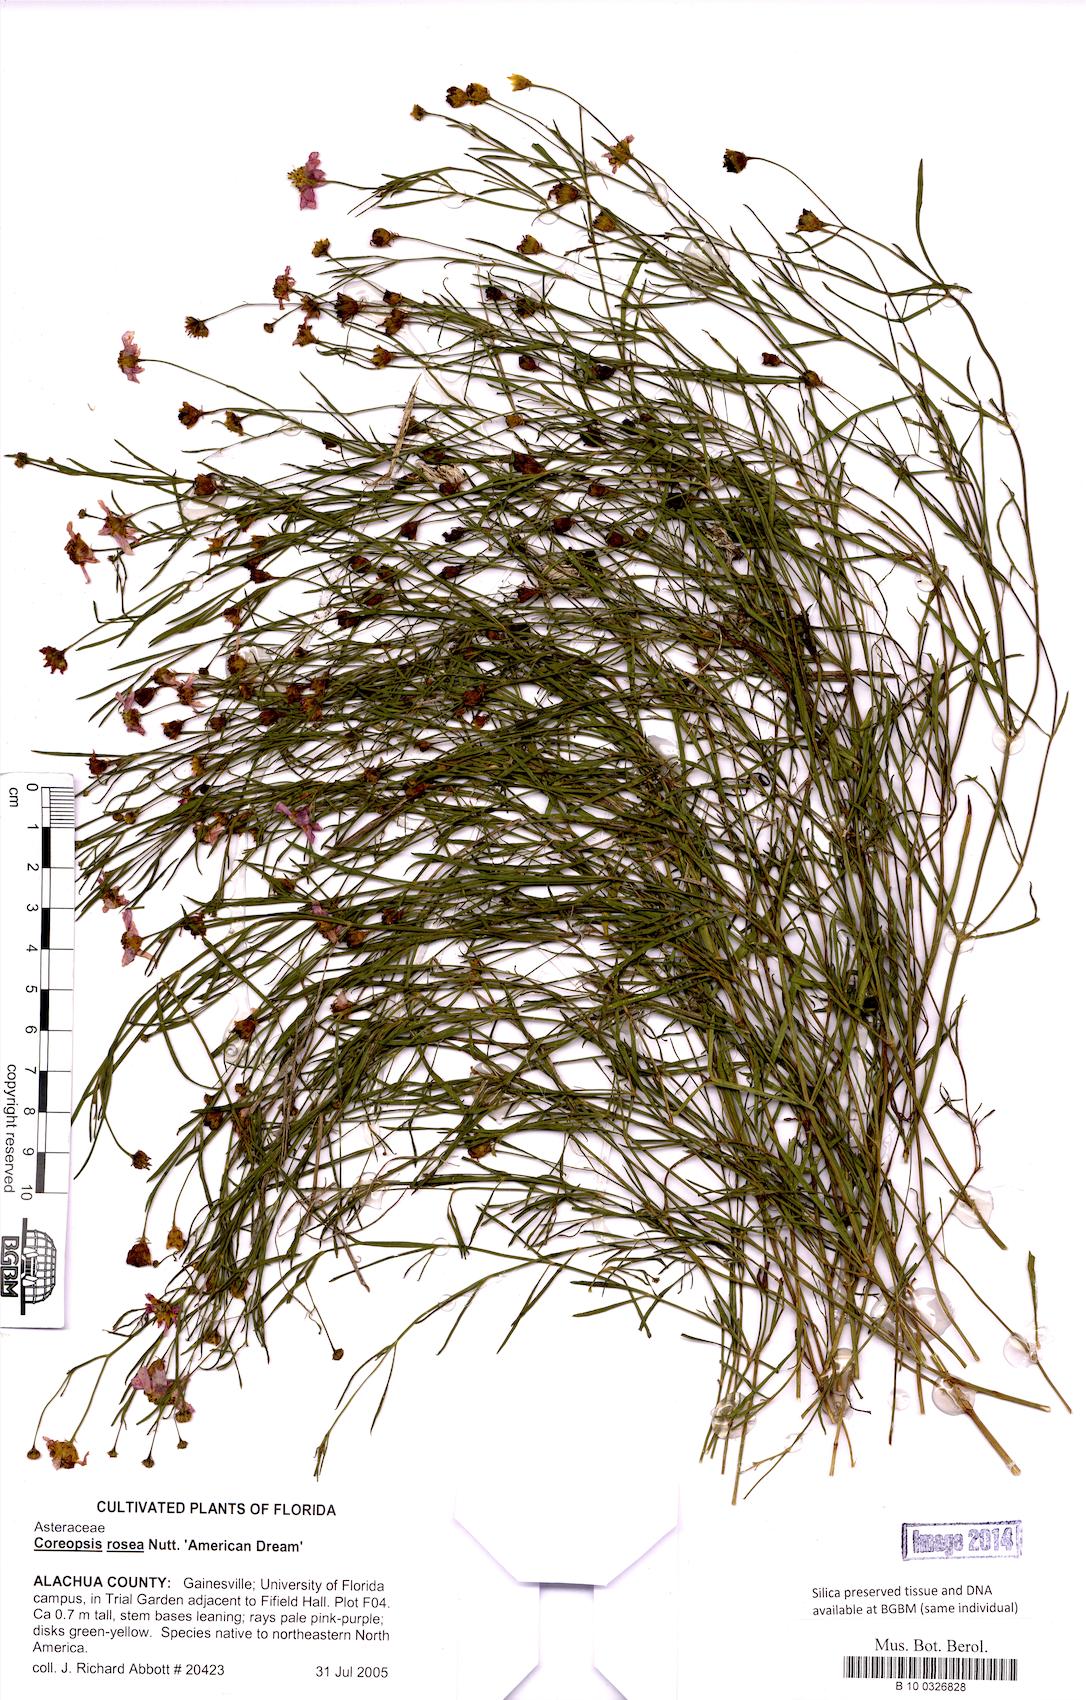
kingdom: Plantae
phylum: Tracheophyta
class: Magnoliopsida
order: Asterales
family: Asteraceae
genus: Coreopsis
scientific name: Coreopsis rosea
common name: Pink coreopsis
